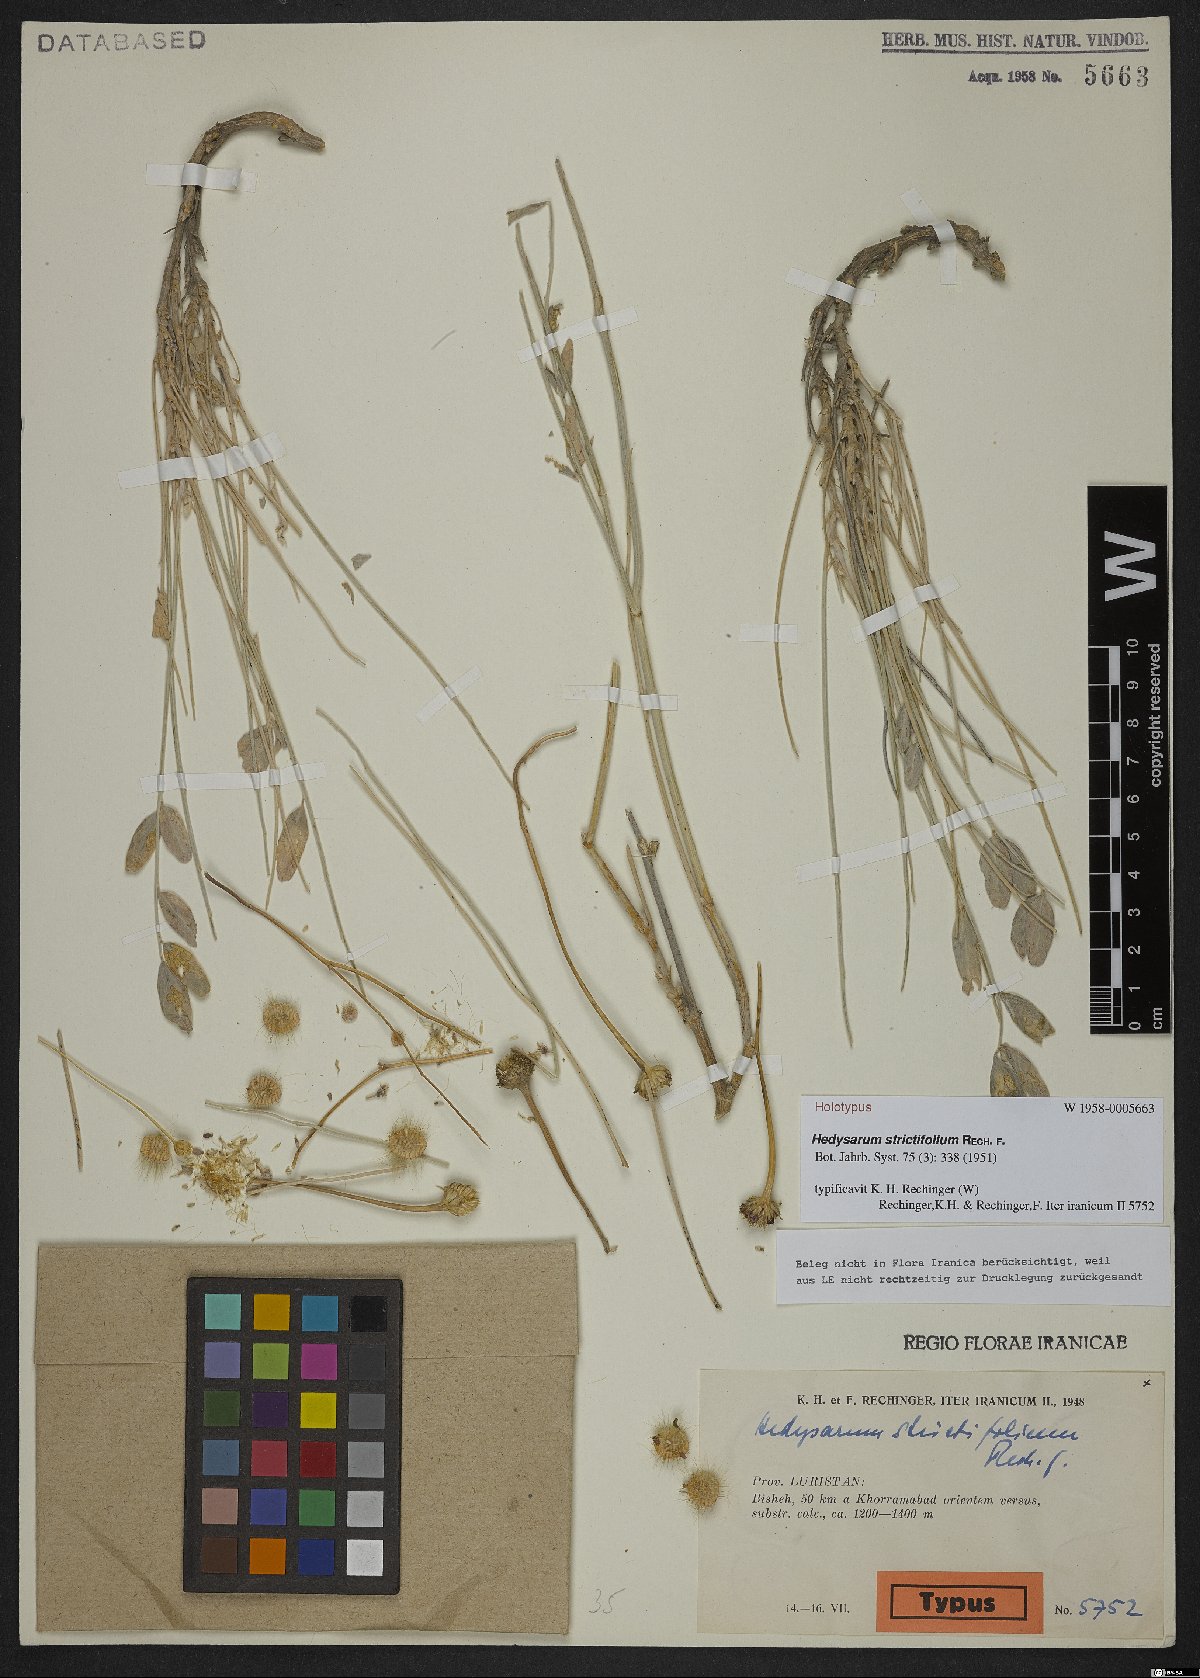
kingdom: Plantae
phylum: Tracheophyta
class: Magnoliopsida
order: Fabales
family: Fabaceae
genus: Hedysarum
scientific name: Hedysarum strictifolium
